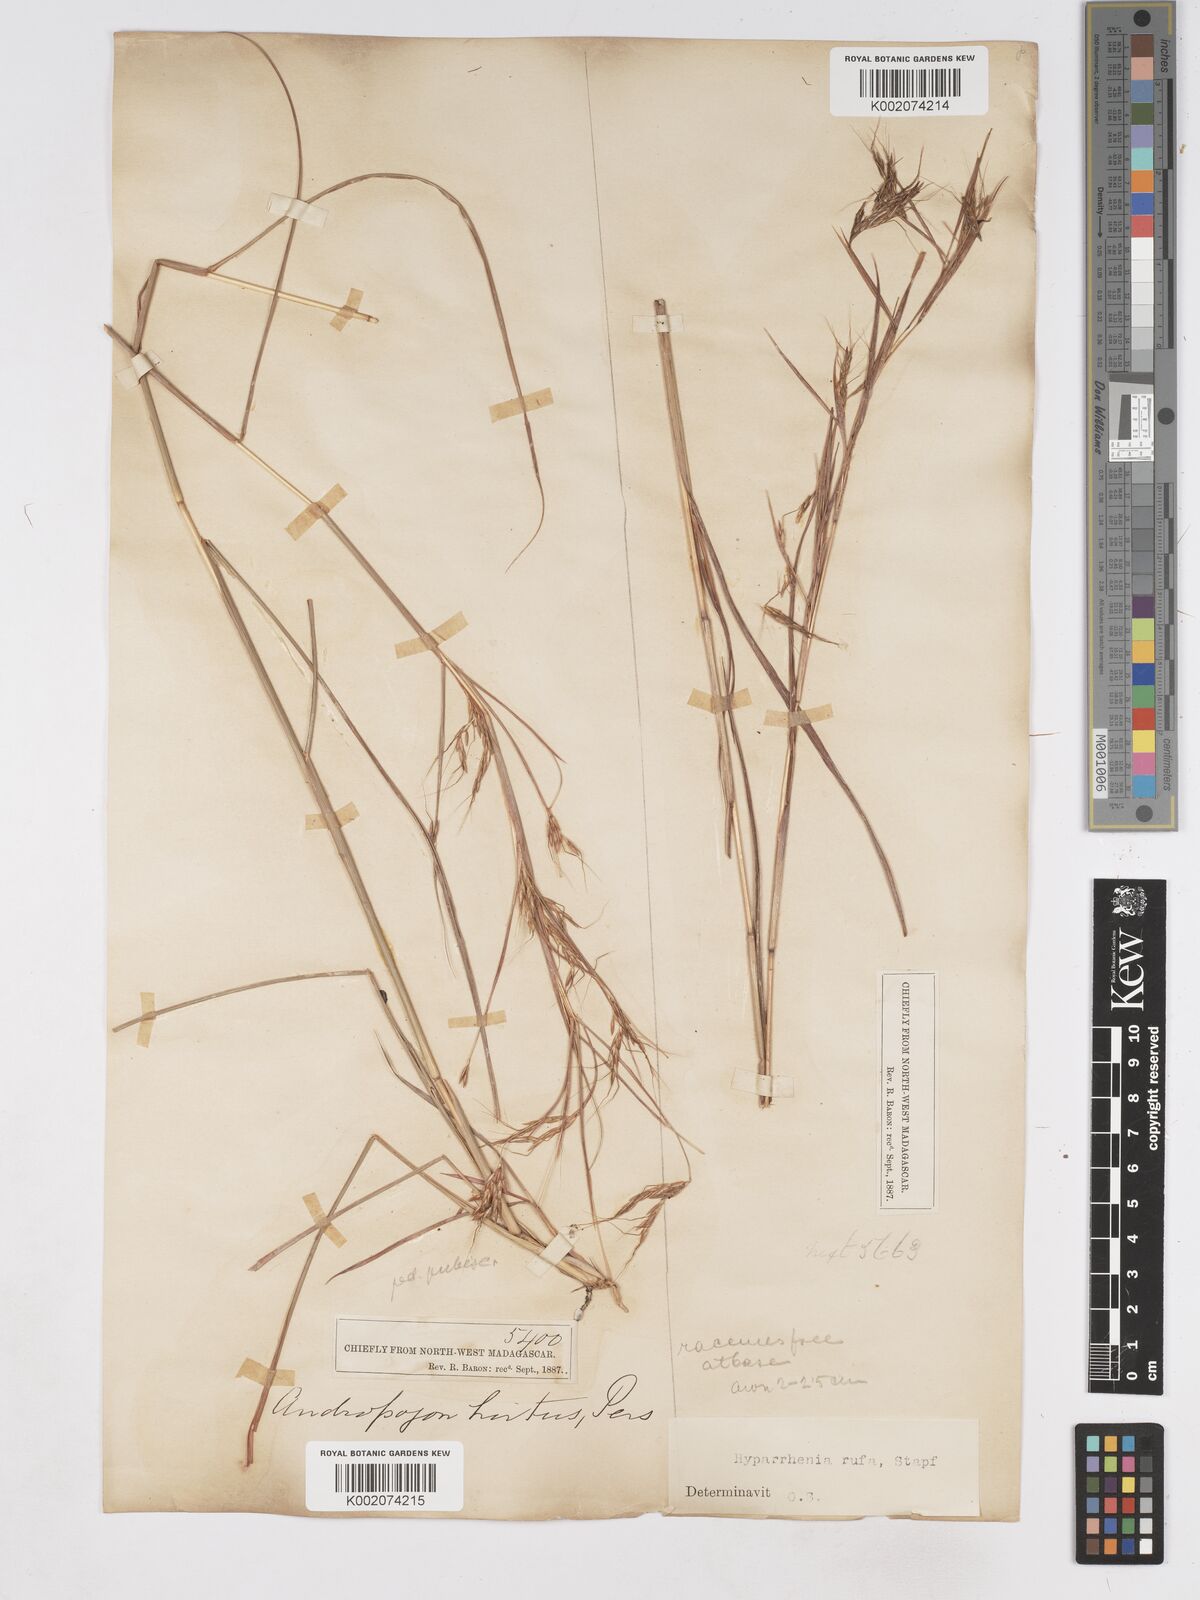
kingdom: Plantae
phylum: Tracheophyta
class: Liliopsida
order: Poales
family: Poaceae
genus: Hyparrhenia
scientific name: Hyparrhenia rufa
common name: Jaraguagrass
